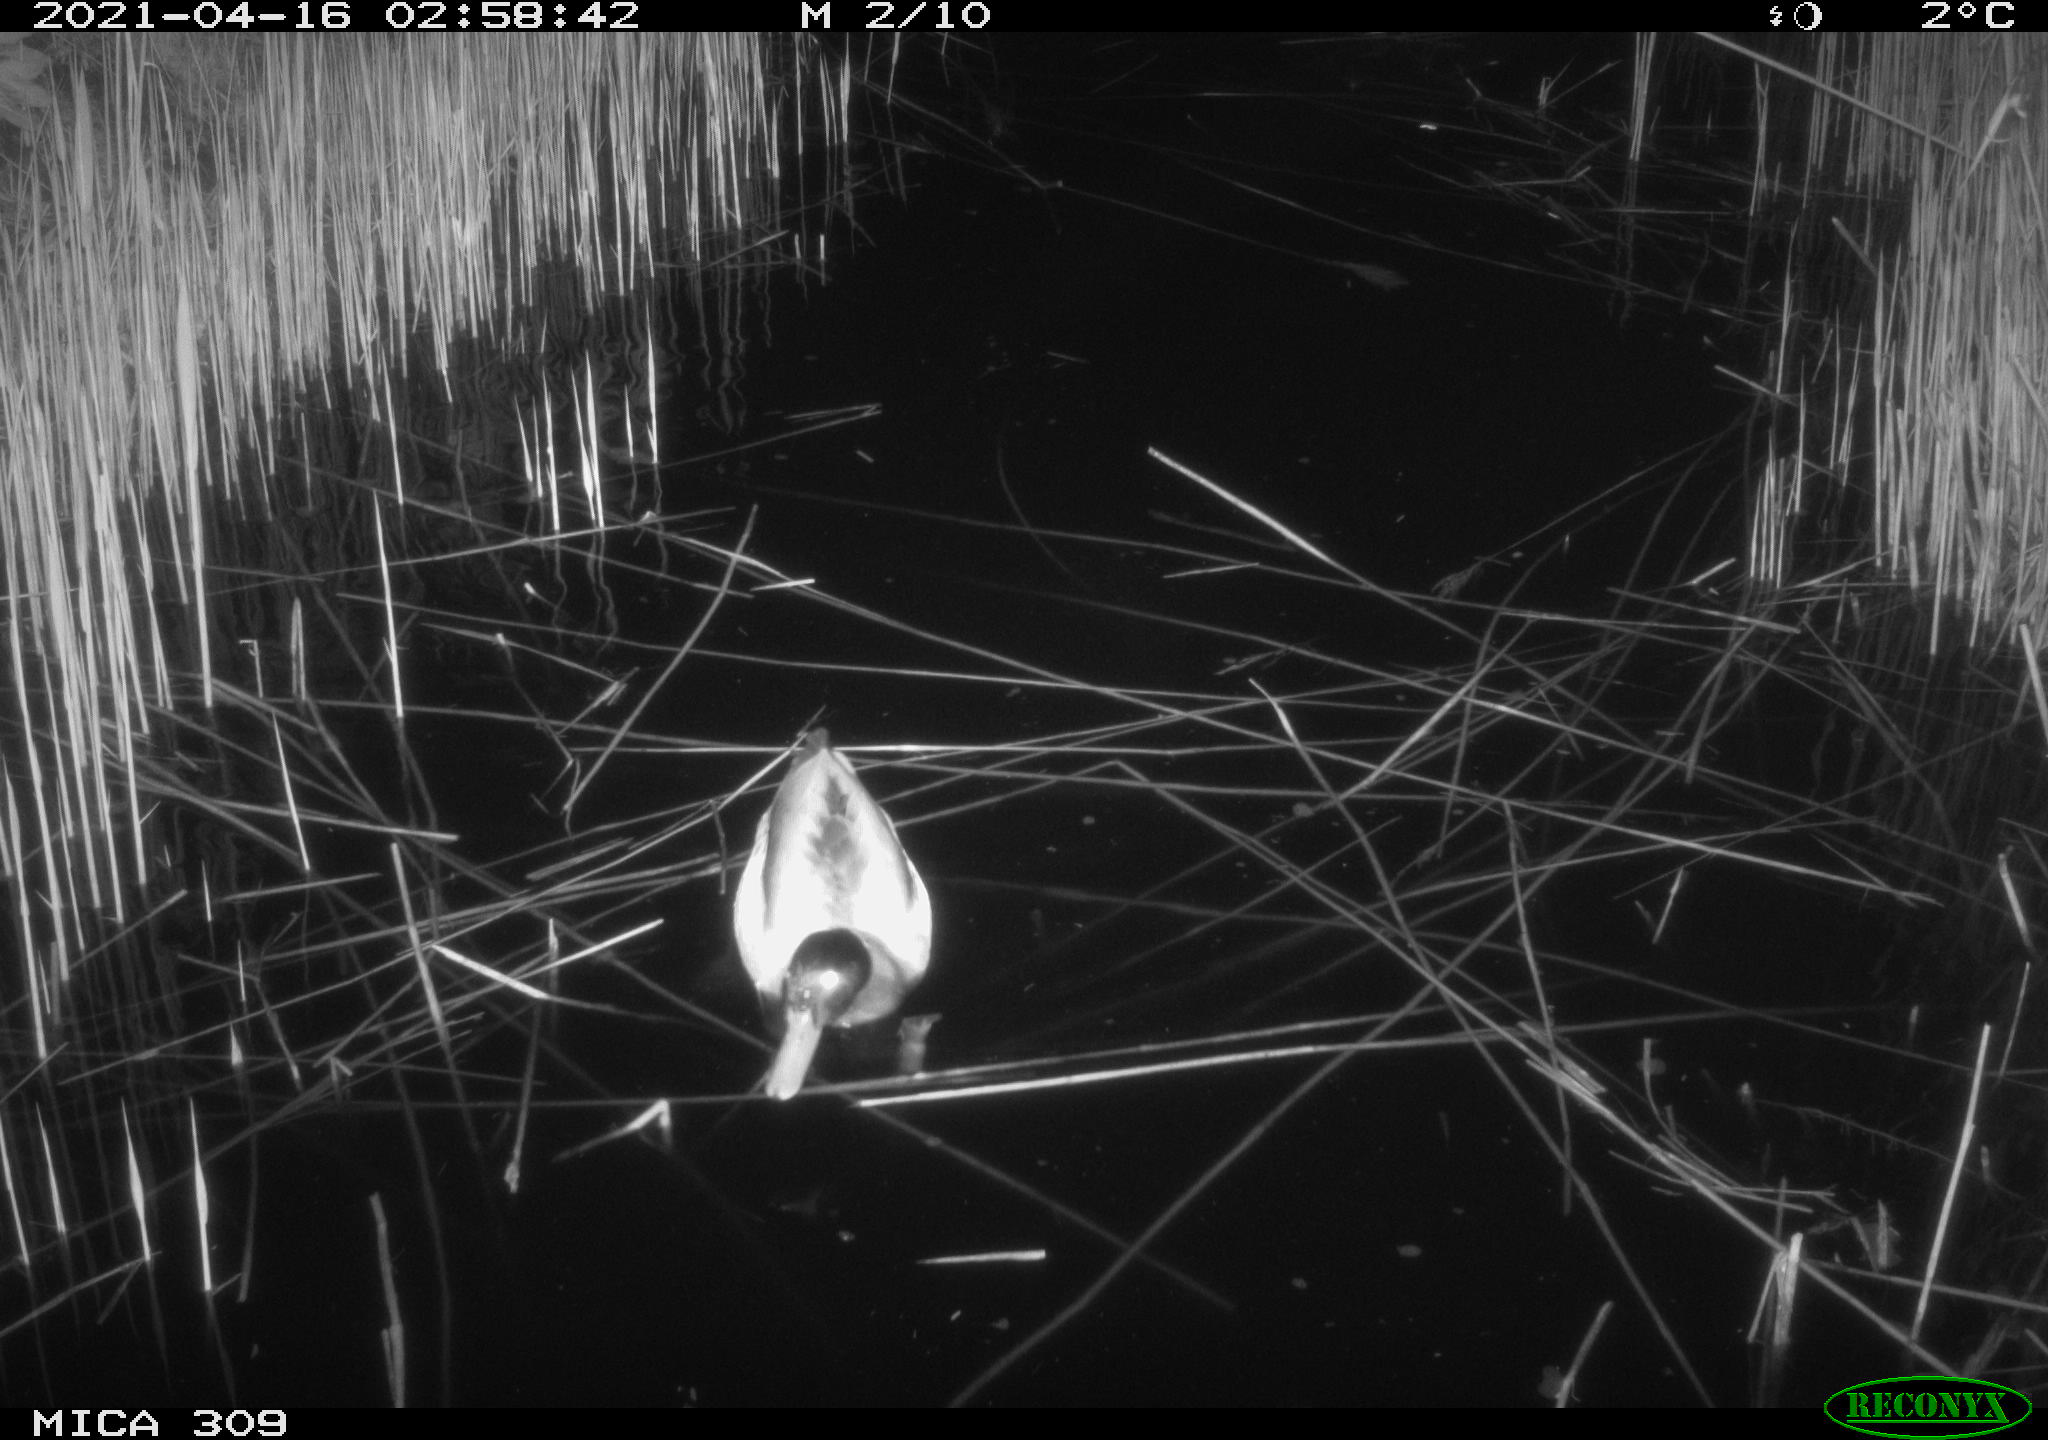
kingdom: Animalia
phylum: Chordata
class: Aves
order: Anseriformes
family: Anatidae
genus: Anas
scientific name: Anas platyrhynchos
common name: Mallard
